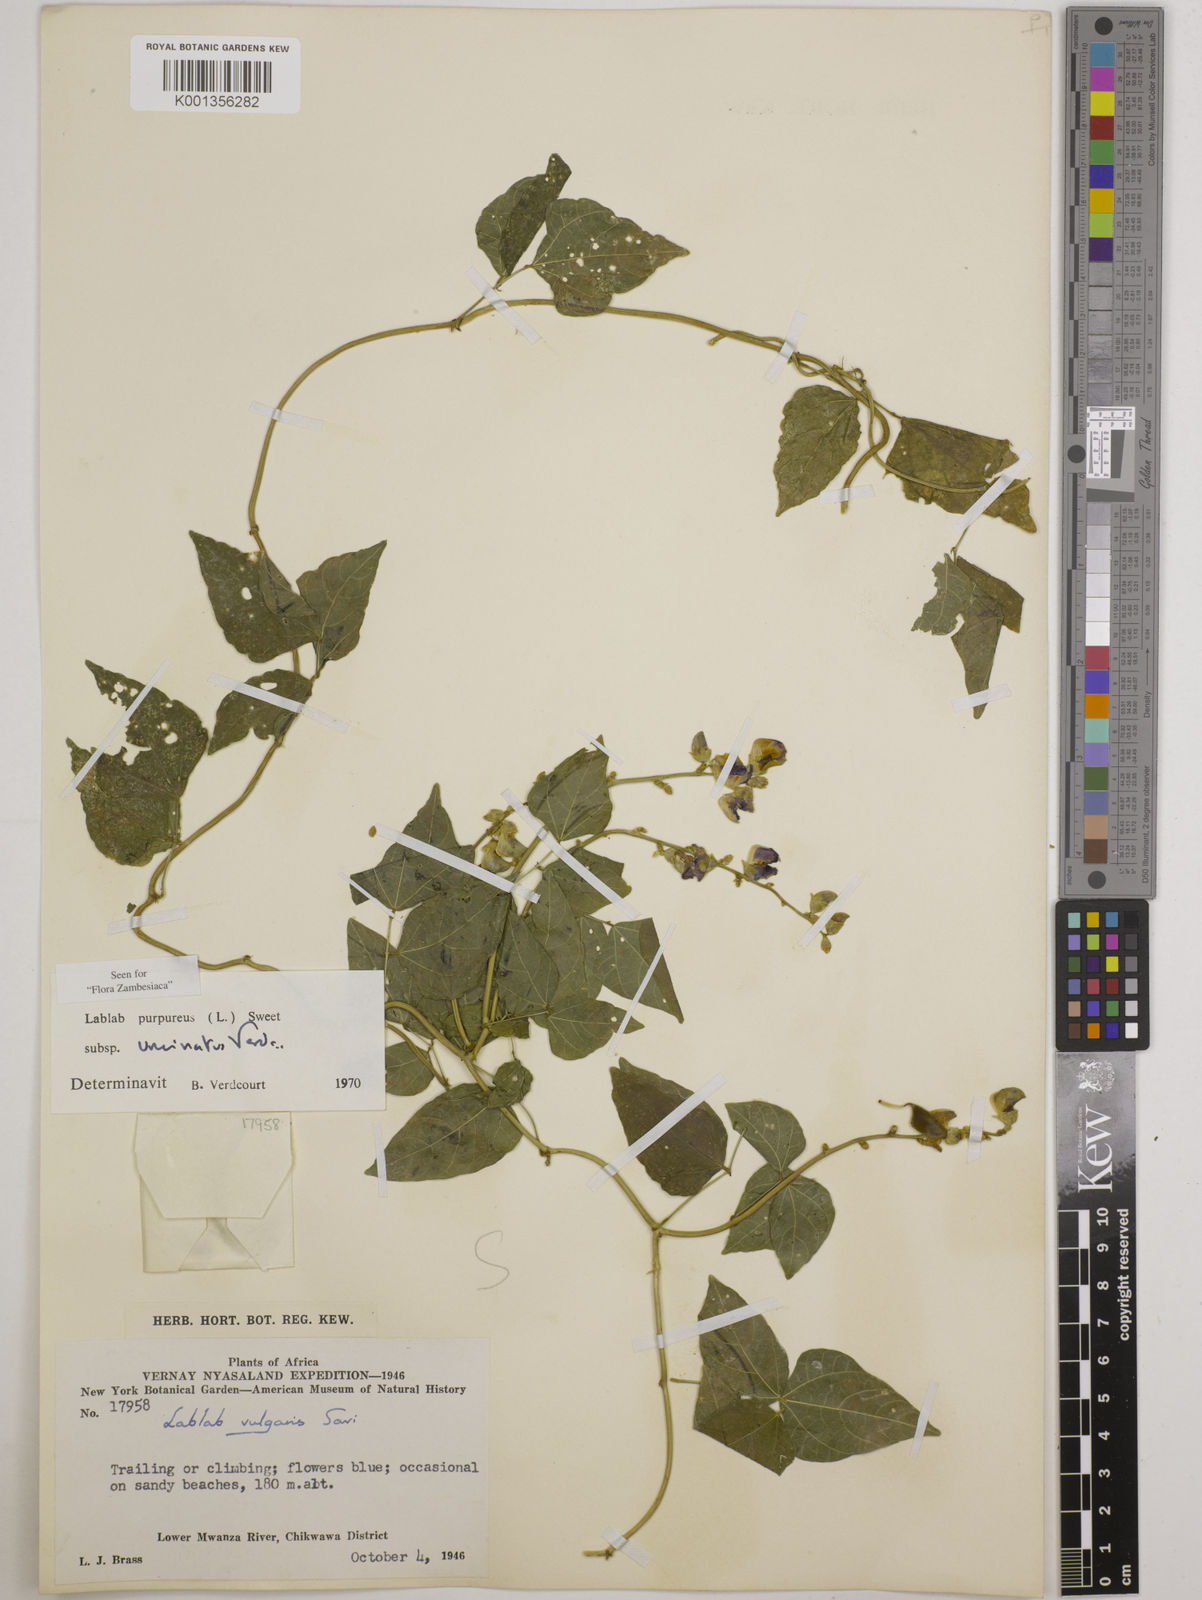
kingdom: Plantae
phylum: Tracheophyta
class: Magnoliopsida
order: Fabales
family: Fabaceae
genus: Lablab
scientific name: Lablab
